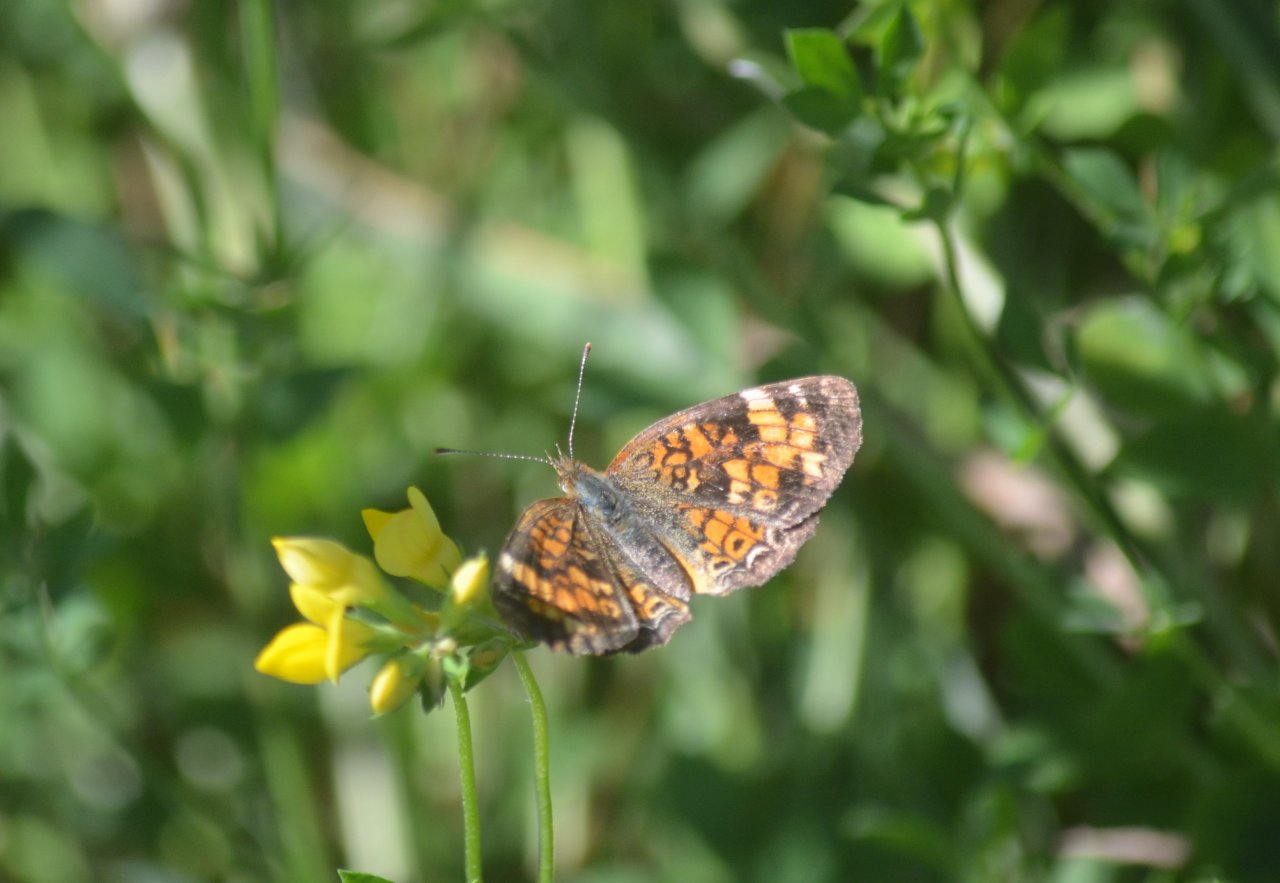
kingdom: Animalia
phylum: Arthropoda
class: Insecta
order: Lepidoptera
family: Nymphalidae
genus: Phyciodes
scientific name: Phyciodes tharos
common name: Pearl Crescent
